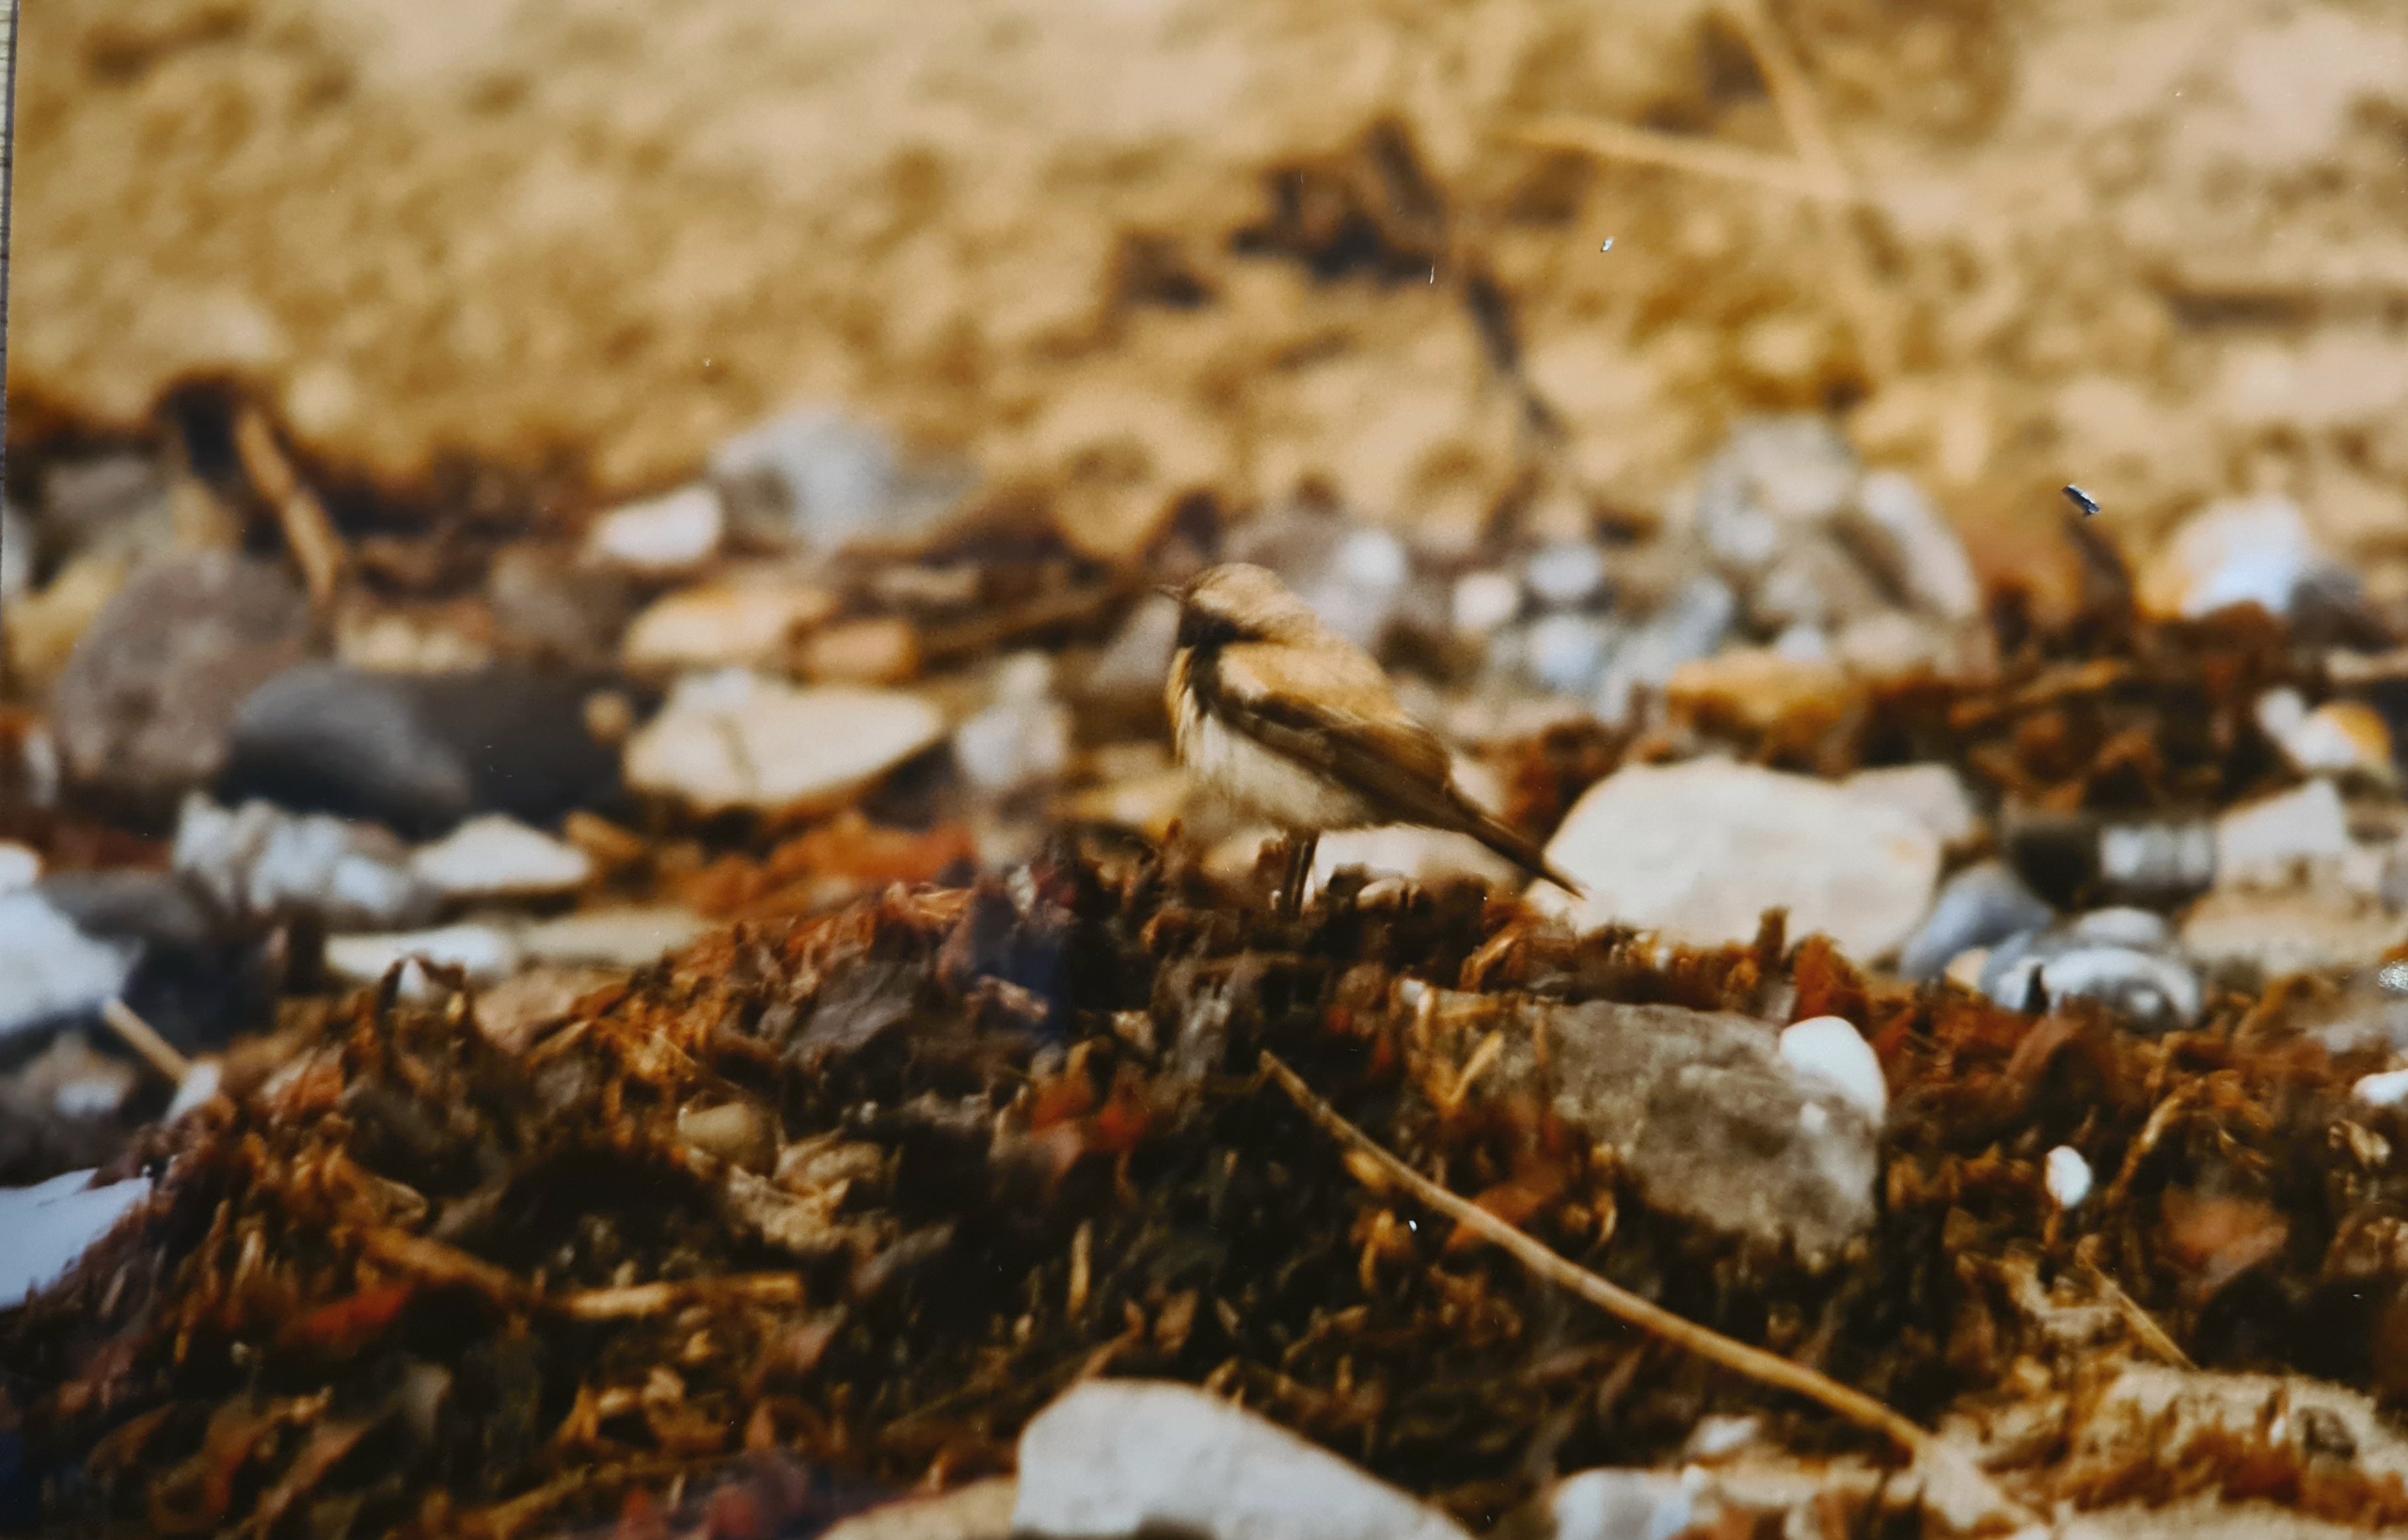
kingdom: Animalia
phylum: Chordata
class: Aves
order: Passeriformes
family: Muscicapidae
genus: Oenanthe
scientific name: Oenanthe deserti
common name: Ørkenstenpikker
